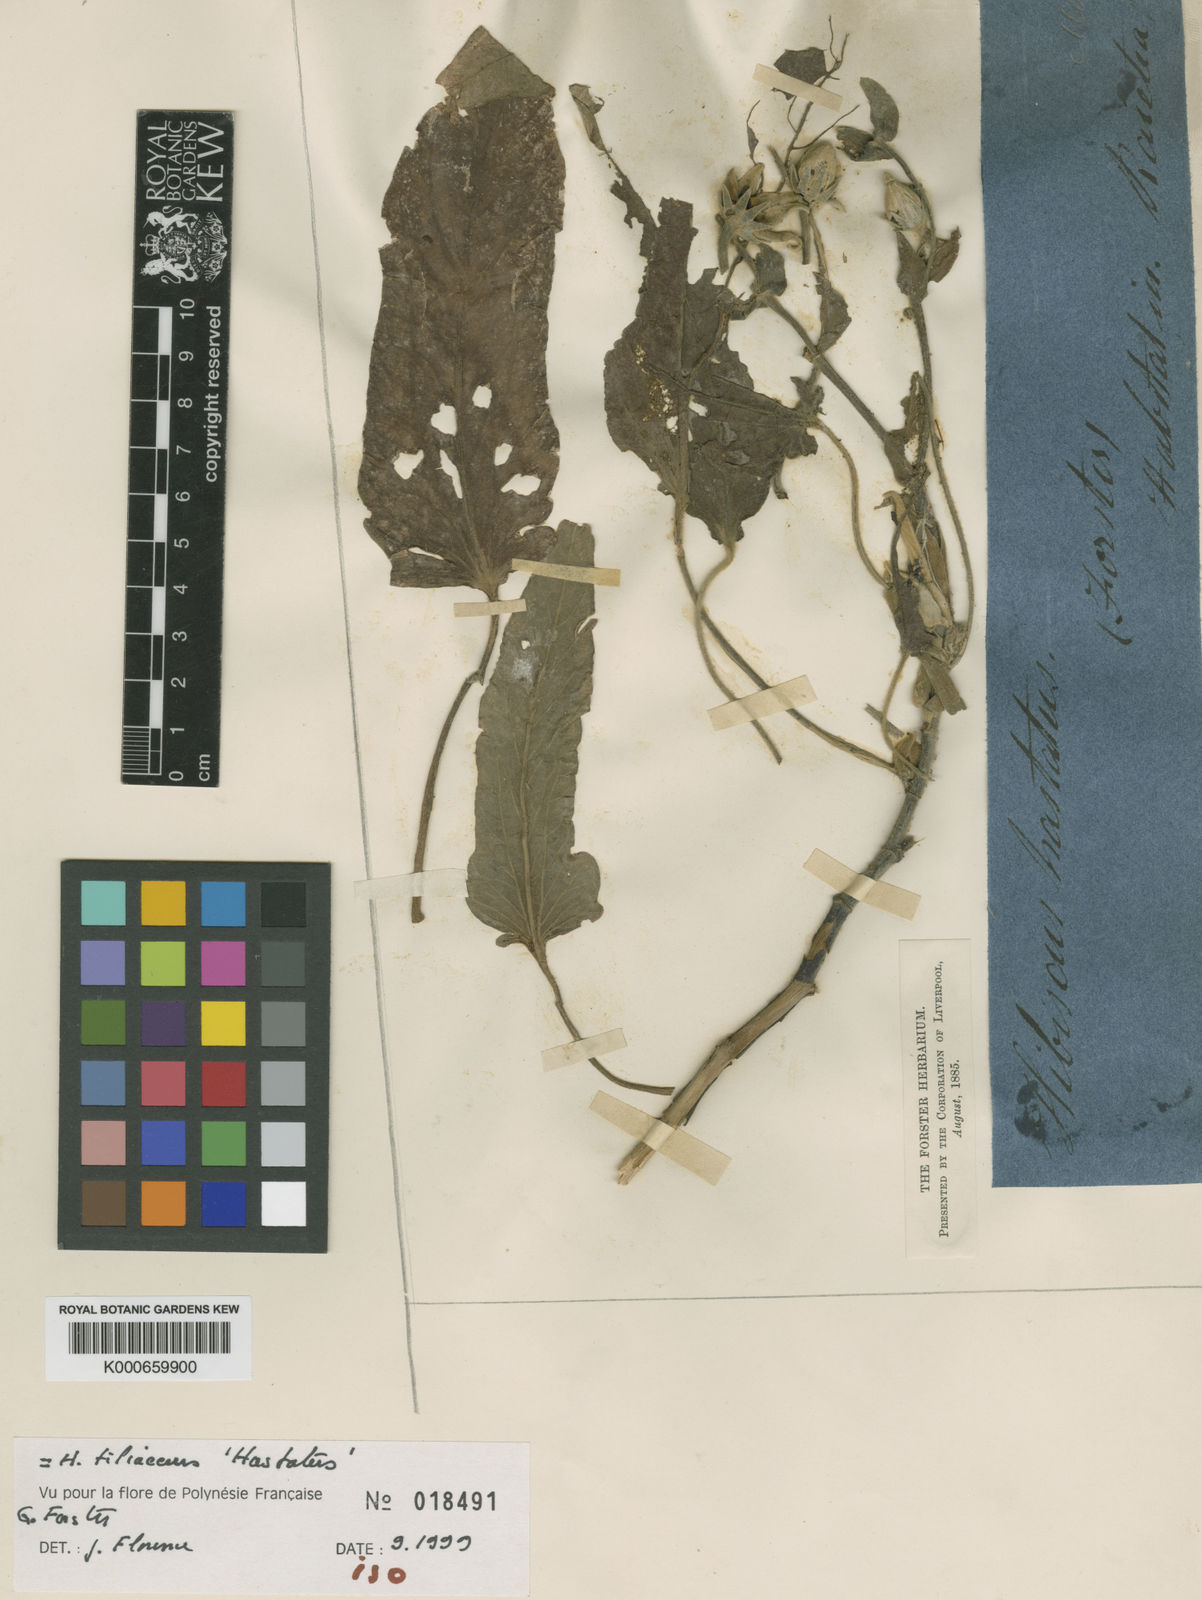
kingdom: Plantae
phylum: Tracheophyta
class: Magnoliopsida
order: Malvales
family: Malvaceae
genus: Talipariti
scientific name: Talipariti tiliaceum
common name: Sea hibiscus
